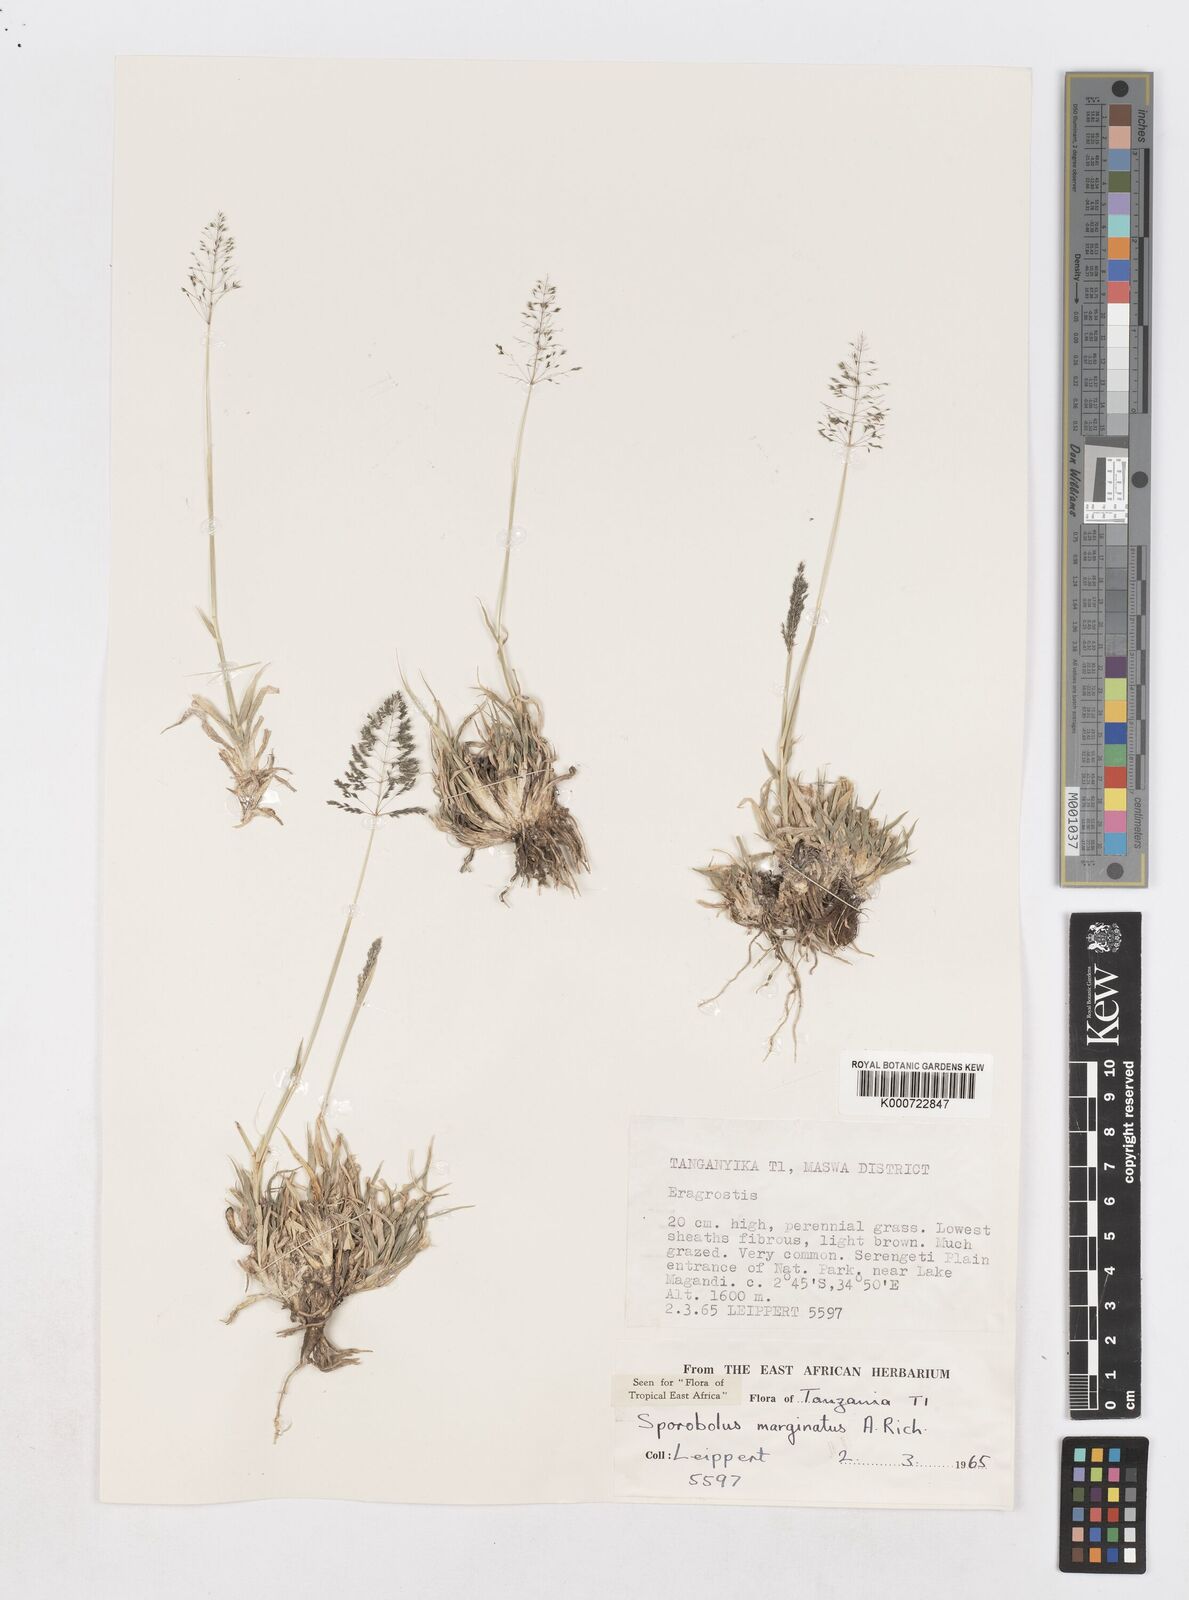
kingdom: Plantae
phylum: Tracheophyta
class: Liliopsida
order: Poales
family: Poaceae
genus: Sporobolus
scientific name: Sporobolus ioclados
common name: Pan dropseed
